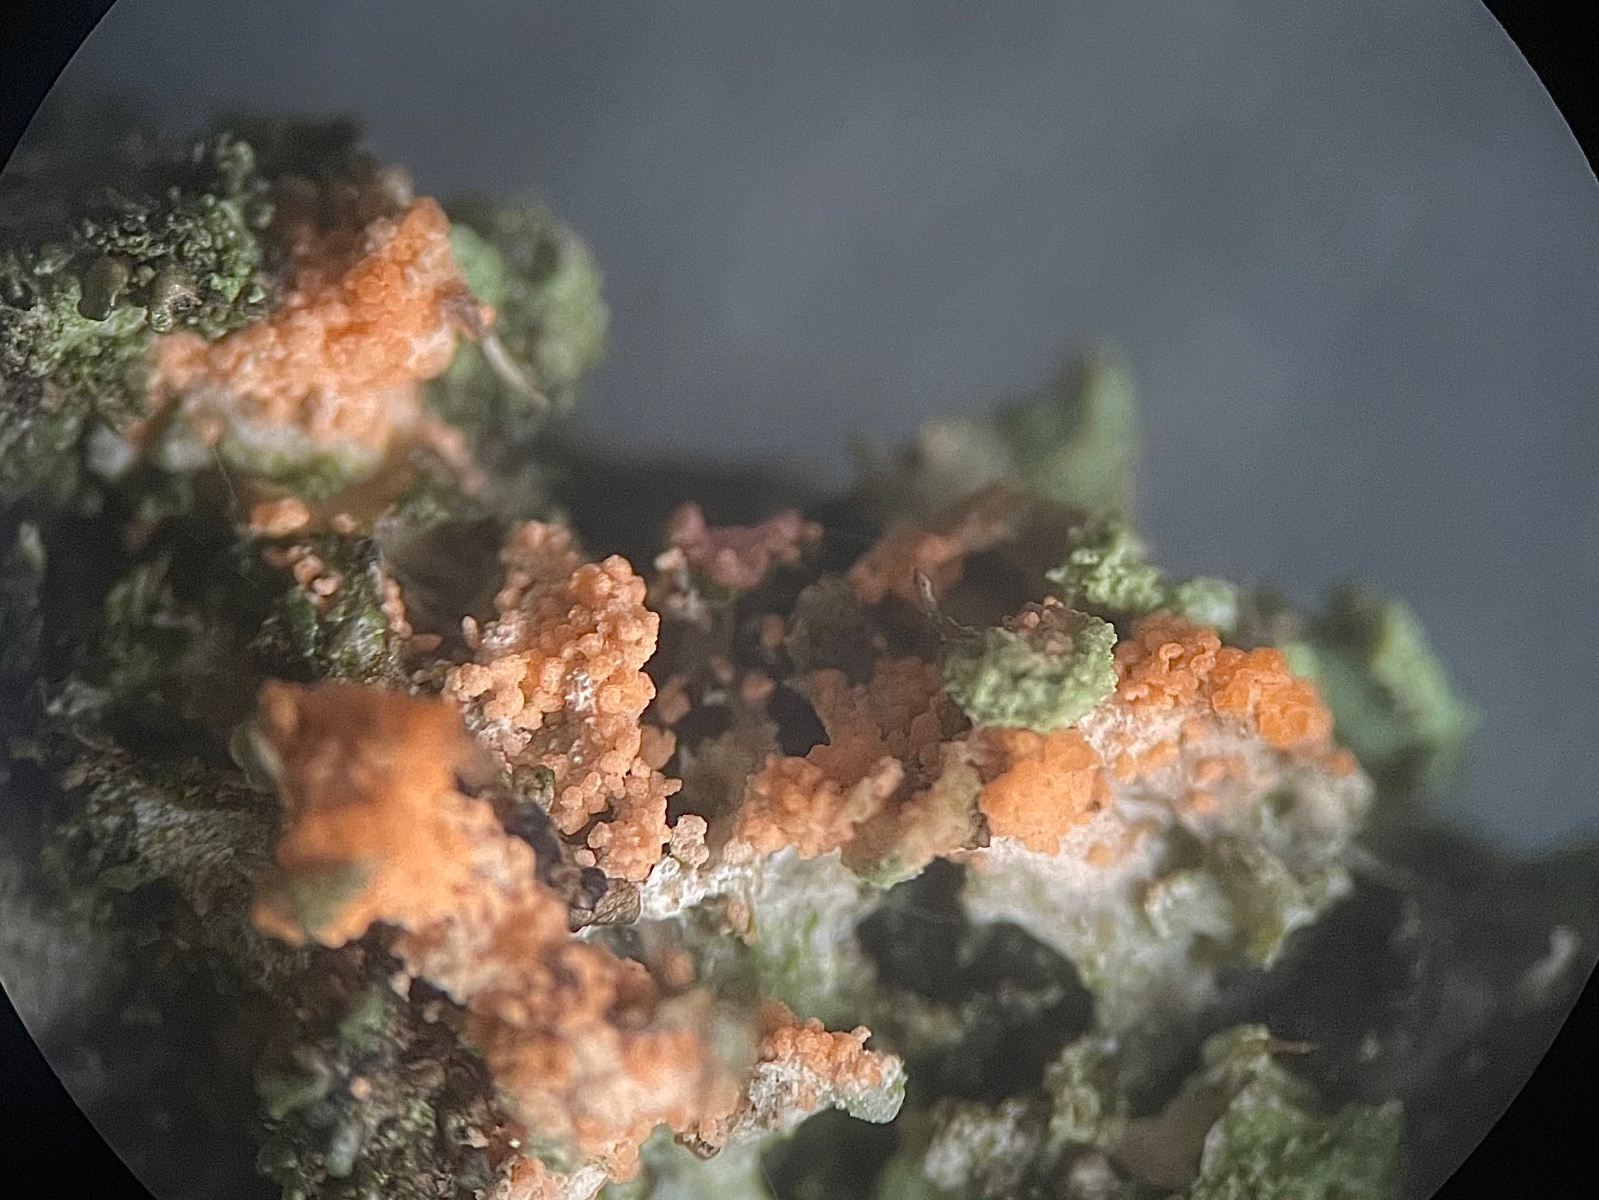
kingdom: Fungi
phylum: Basidiomycota
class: Agaricomycetes
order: Corticiales
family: Corticiaceae
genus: Erythricium
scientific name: Erythricium aurantiacum
